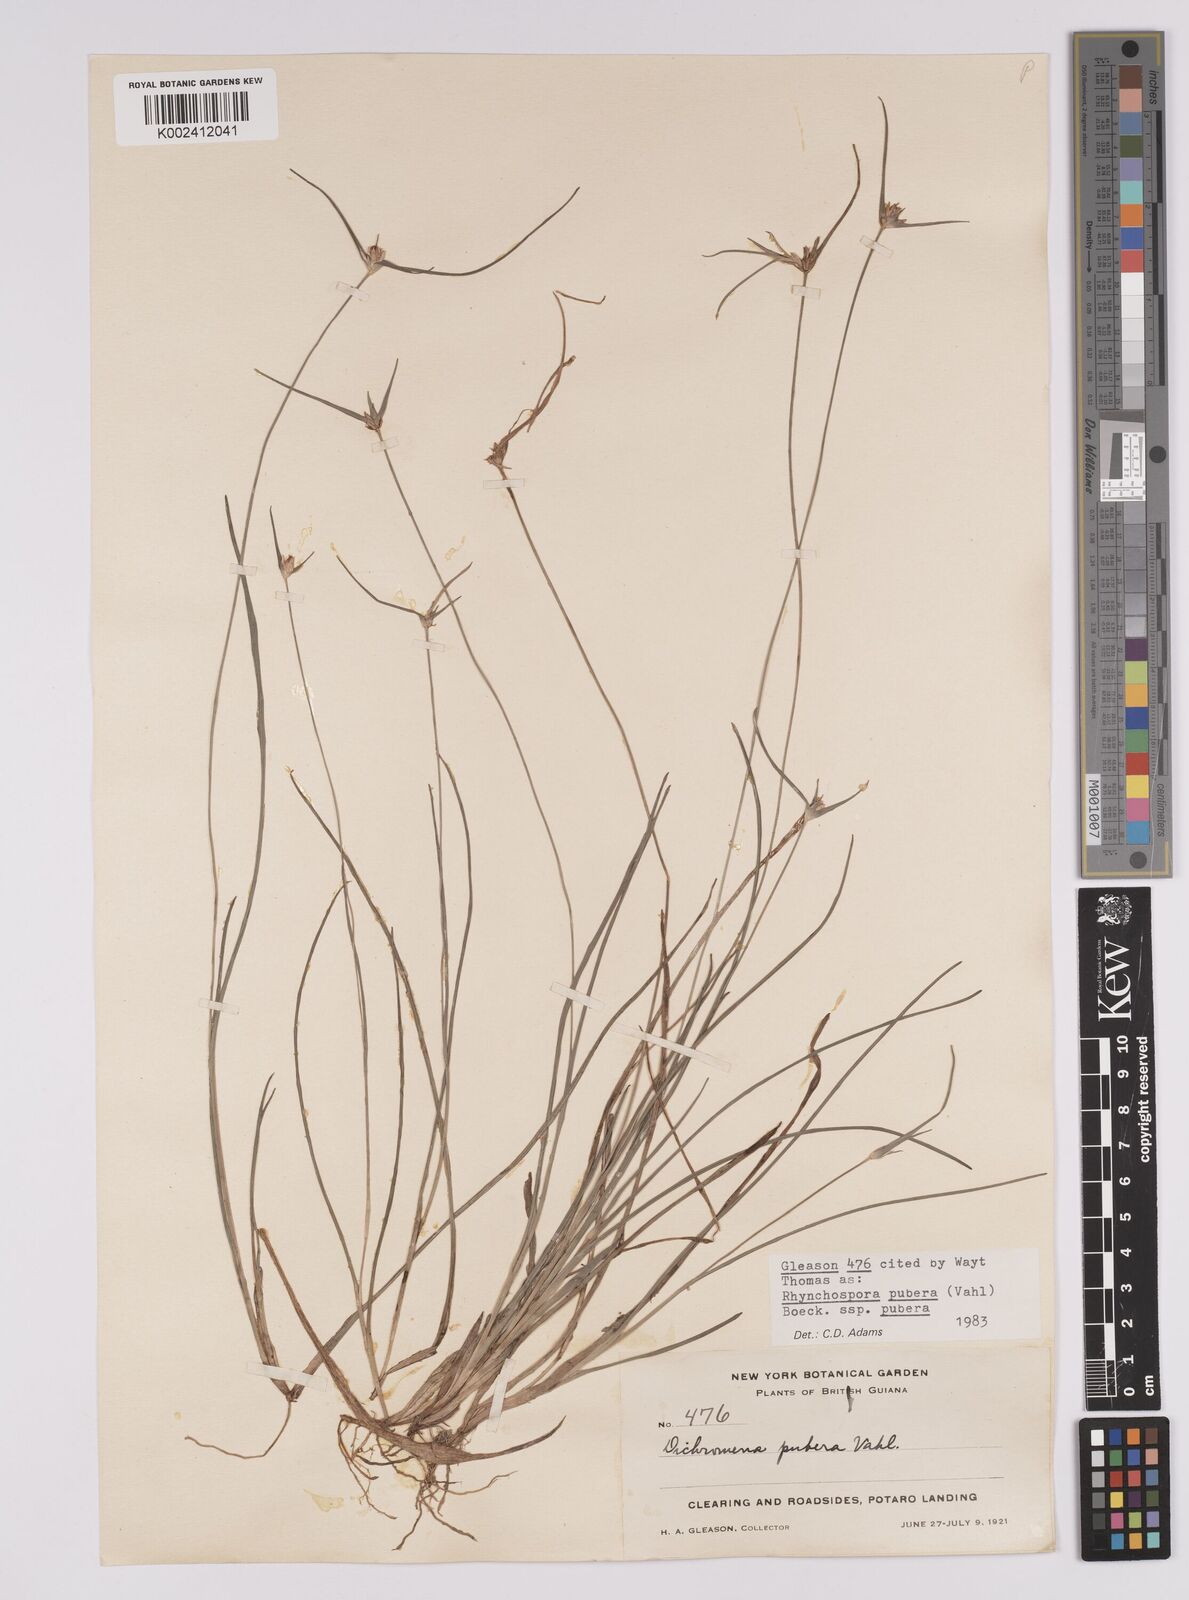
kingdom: Plantae
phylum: Tracheophyta
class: Liliopsida
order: Poales
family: Cyperaceae
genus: Rhynchospora
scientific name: Rhynchospora pubera
